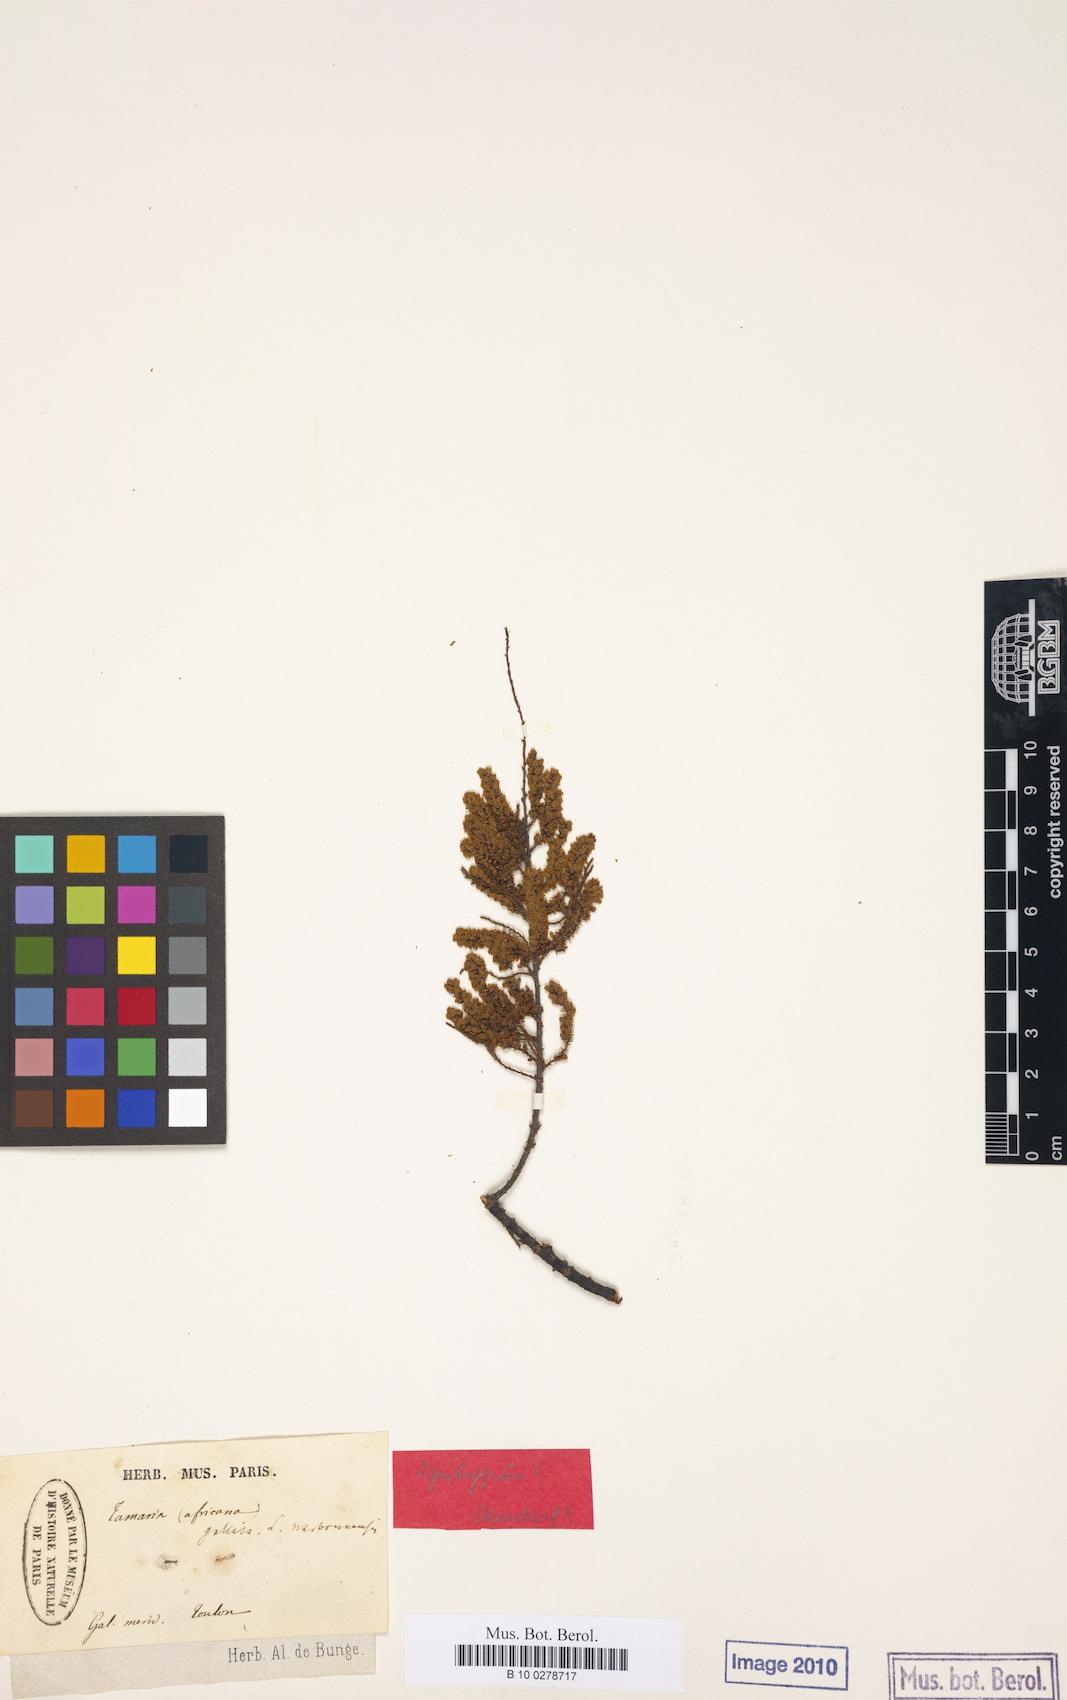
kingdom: Plantae
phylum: Tracheophyta
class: Magnoliopsida
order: Caryophyllales
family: Tamaricaceae
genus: Tamarix
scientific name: Tamarix africana
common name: African tamarisk
